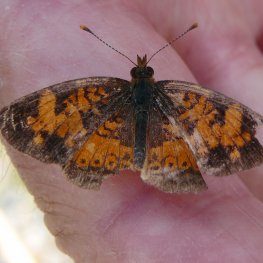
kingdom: Animalia
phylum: Arthropoda
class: Insecta
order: Lepidoptera
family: Nymphalidae
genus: Phyciodes
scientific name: Phyciodes tharos
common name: Northern Crescent
